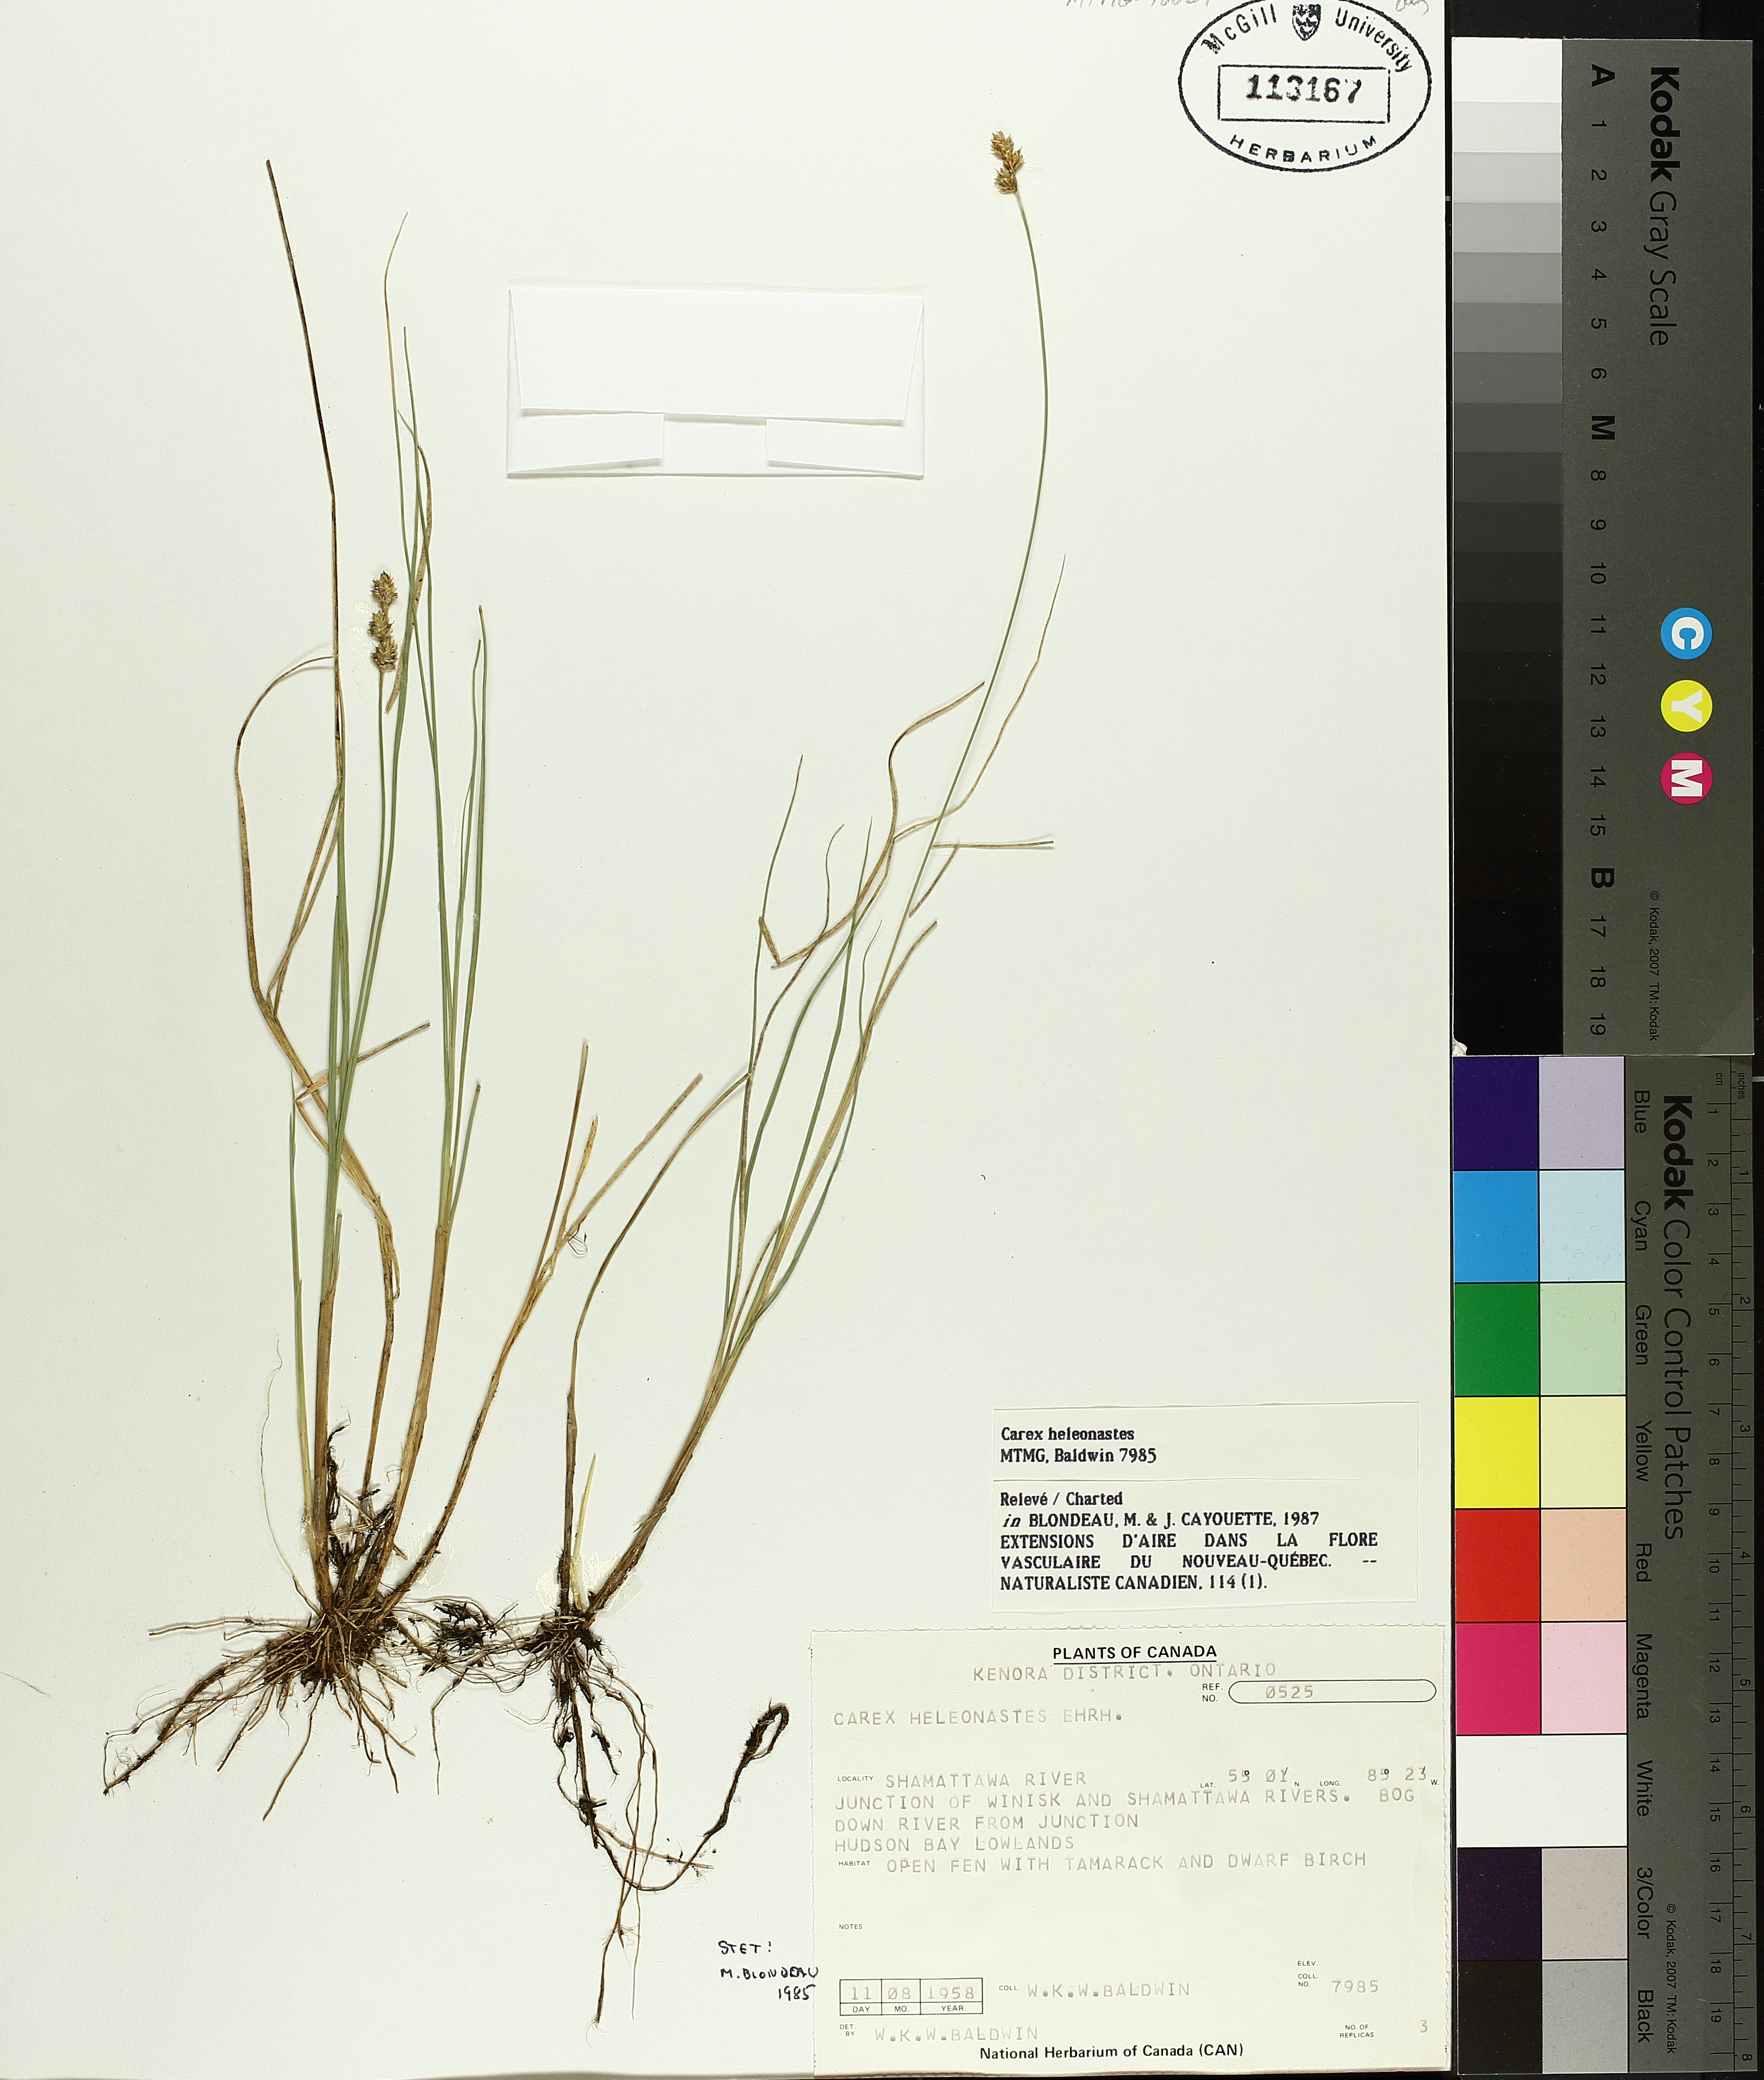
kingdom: Plantae
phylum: Tracheophyta
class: Liliopsida
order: Poales
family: Cyperaceae
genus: Carex
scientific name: Carex heleonastes
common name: Hudson bay sedge
